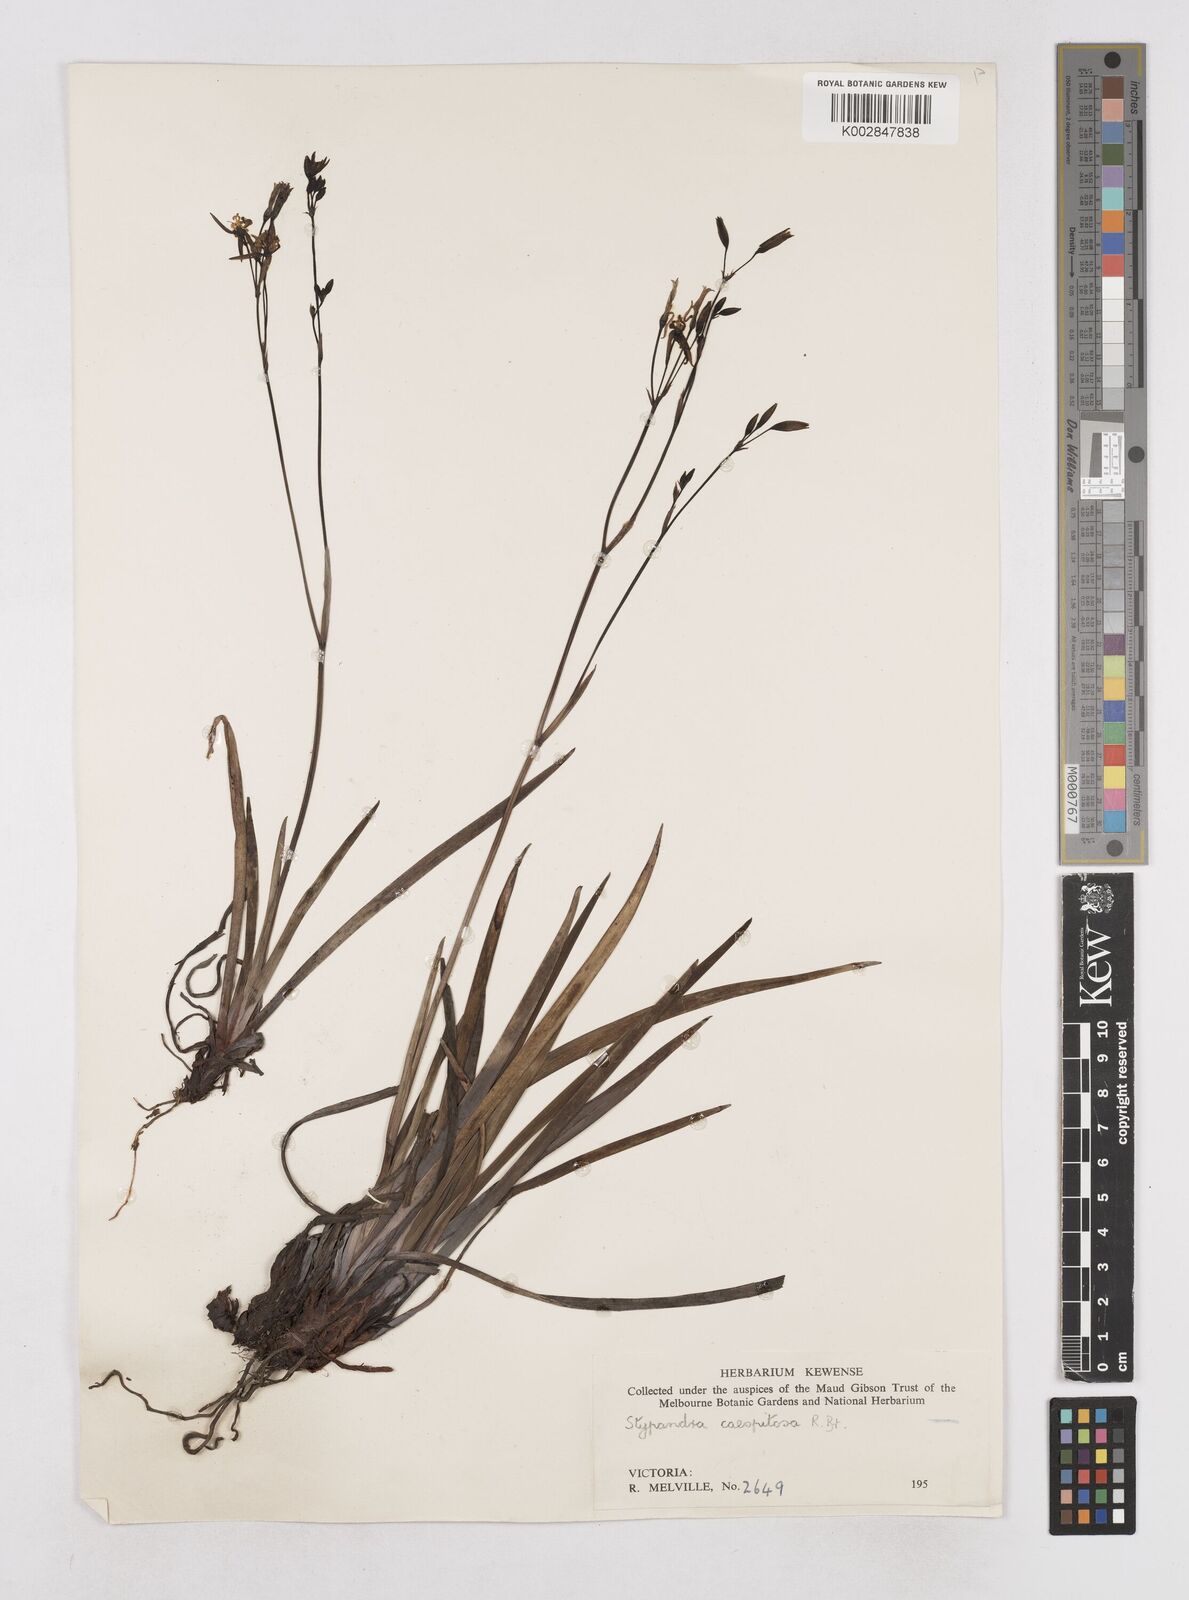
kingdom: Plantae
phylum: Tracheophyta
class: Liliopsida
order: Asparagales
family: Asphodelaceae
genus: Thelionema
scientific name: Thelionema caespitosum
